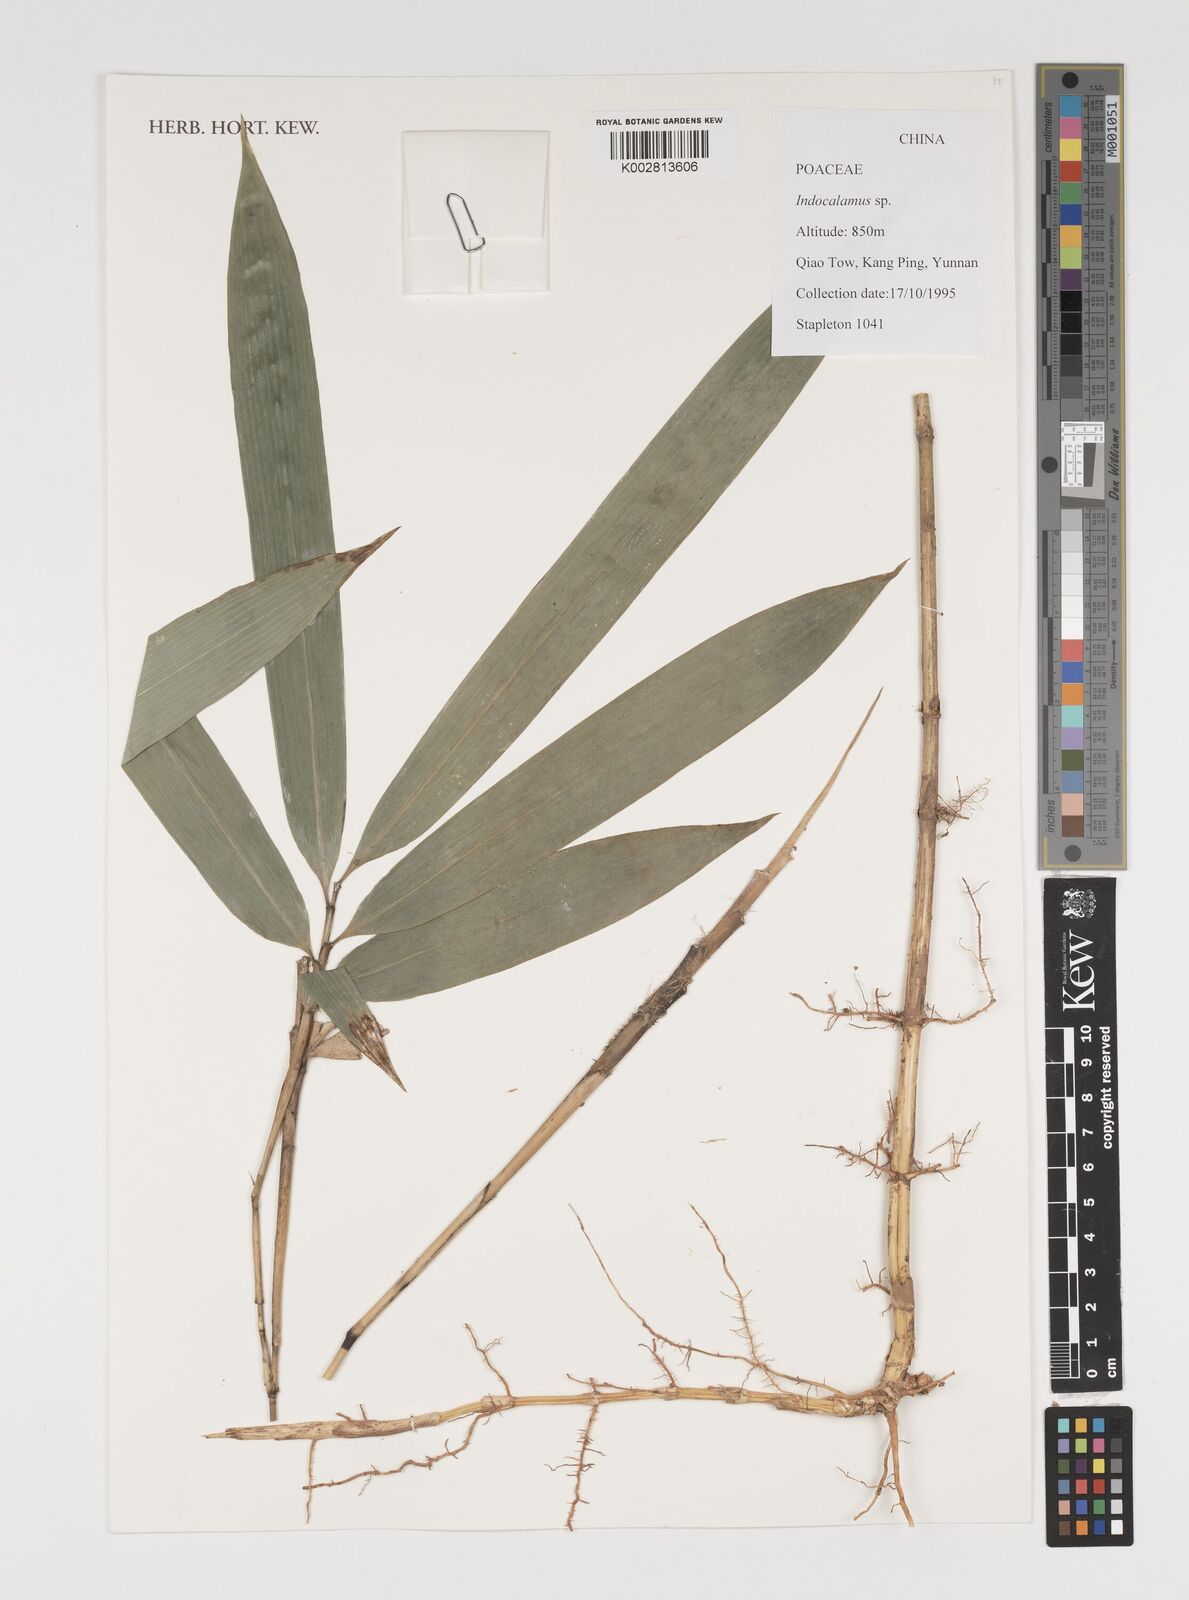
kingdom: Plantae
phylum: Tracheophyta
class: Liliopsida
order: Poales
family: Poaceae
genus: Indocalamus
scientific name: Indocalamus
